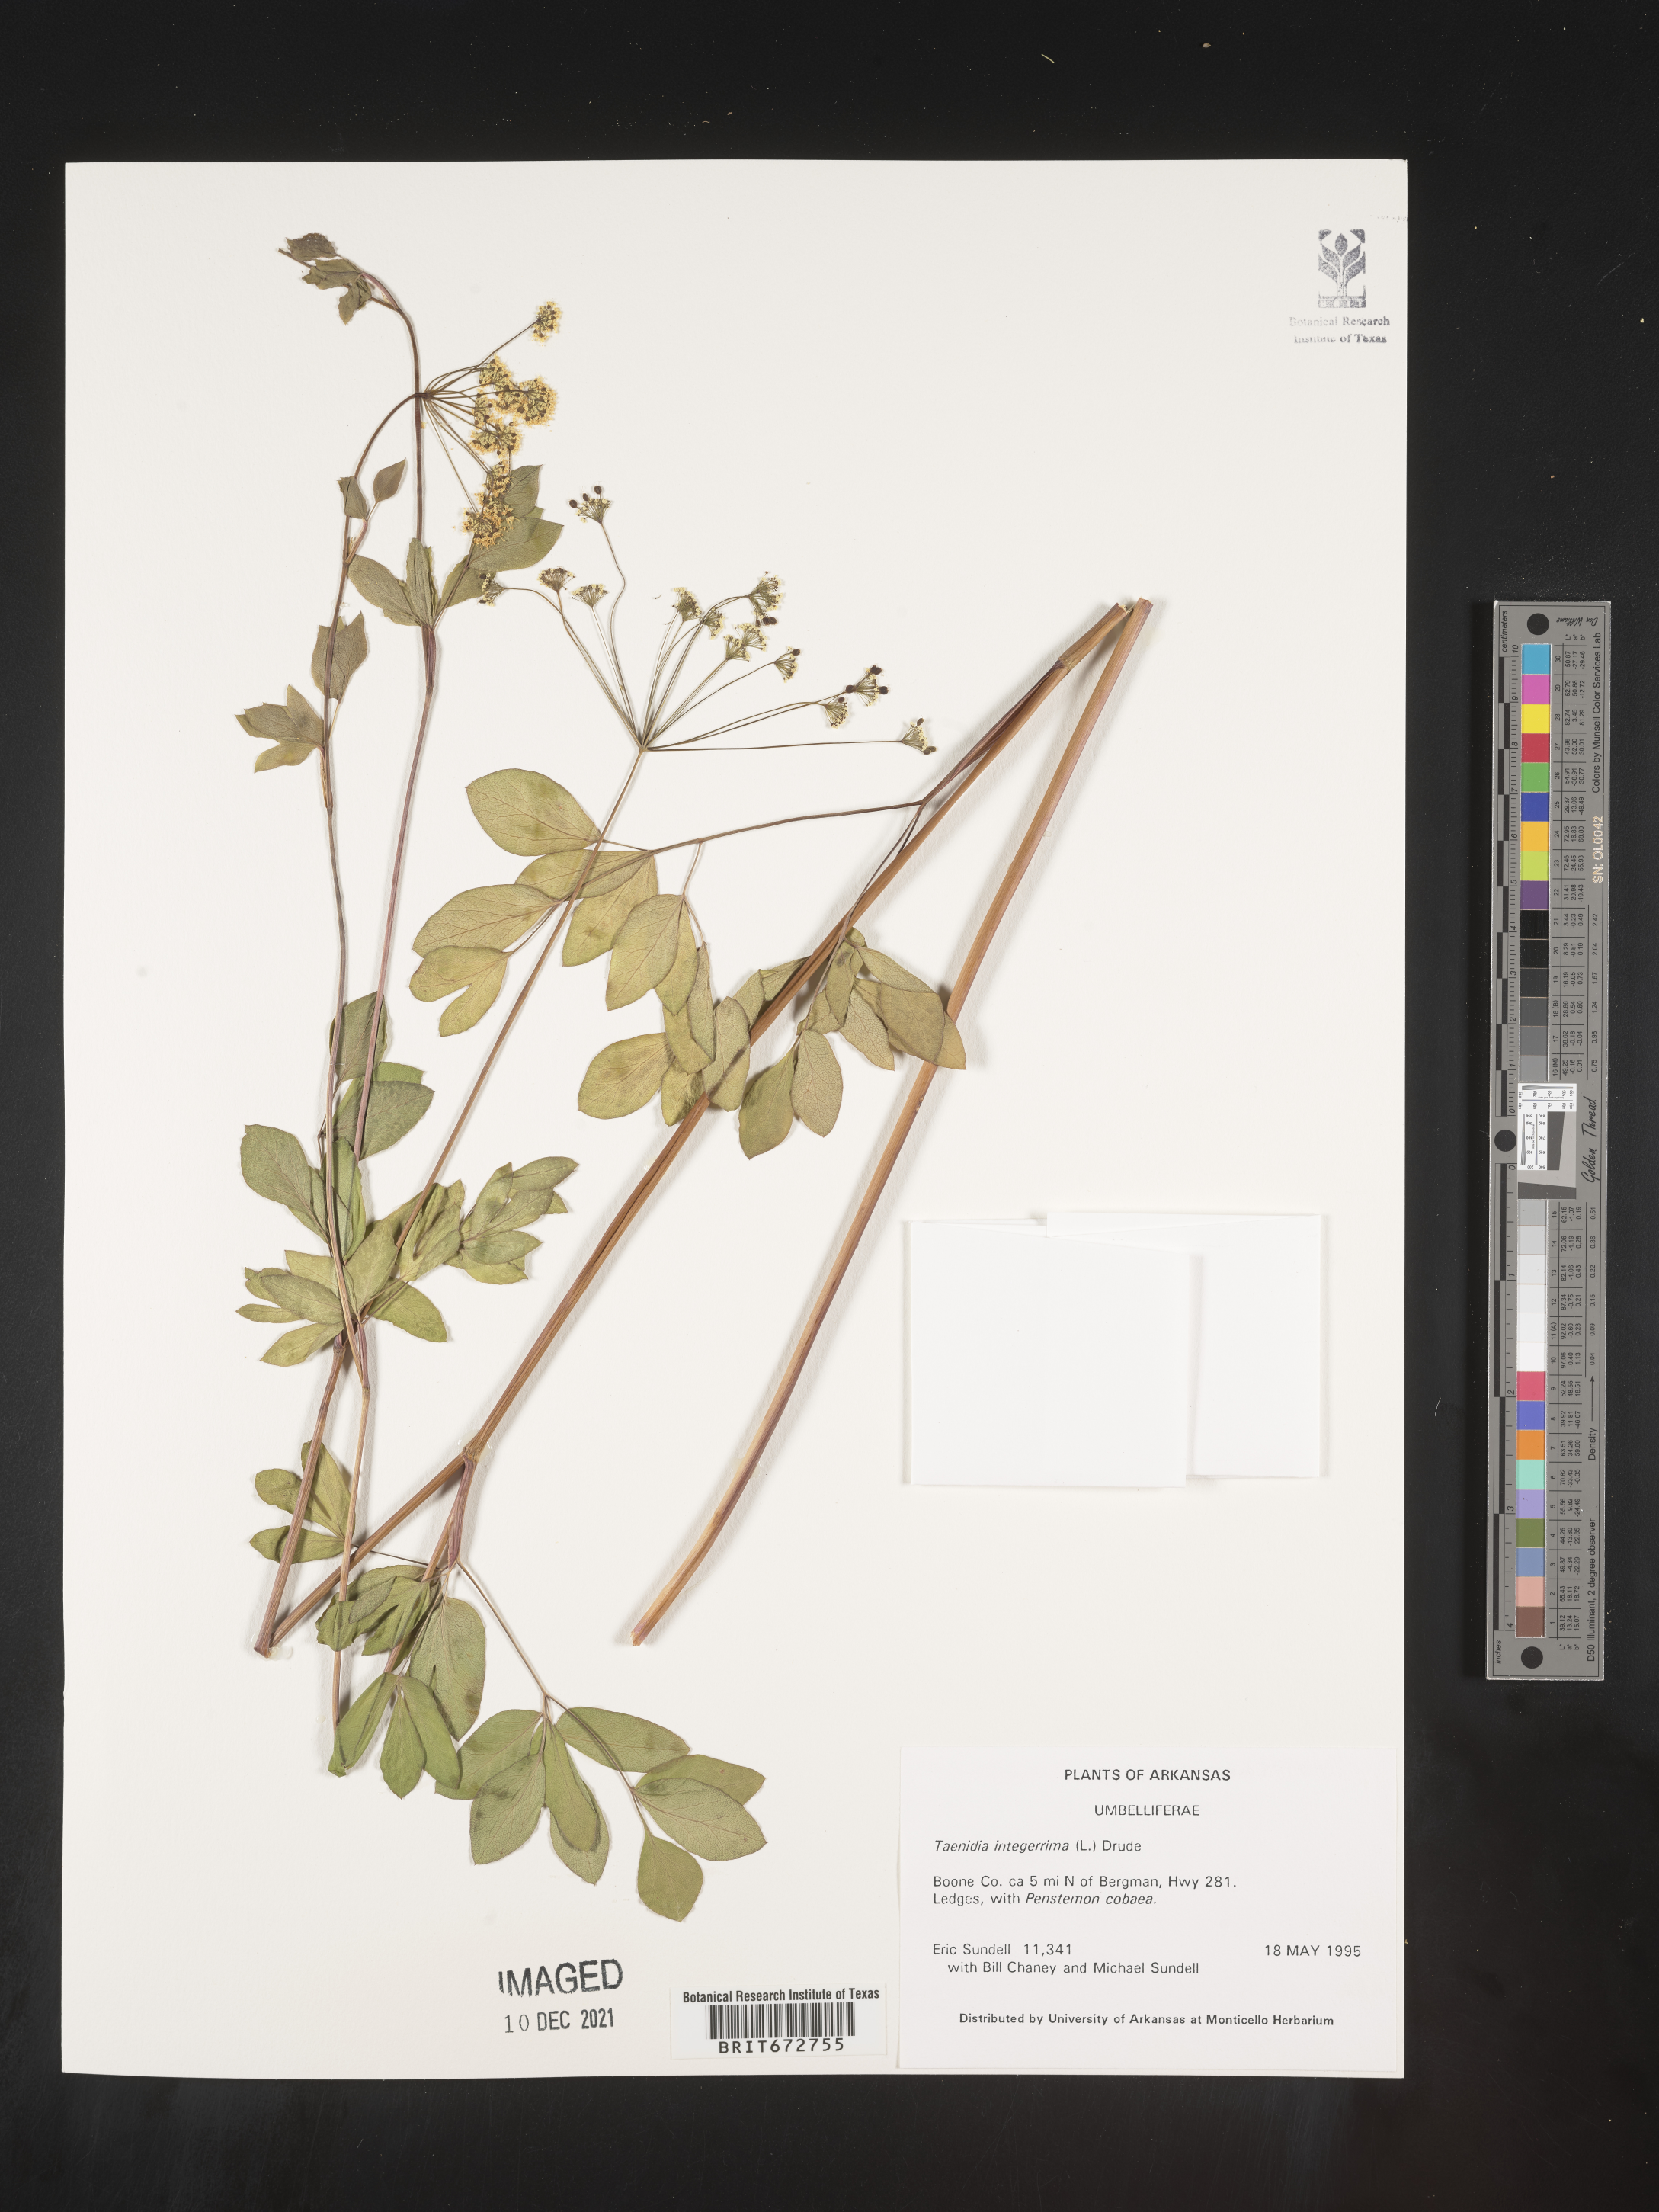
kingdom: Plantae
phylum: Tracheophyta
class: Magnoliopsida
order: Apiales
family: Apiaceae
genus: Taenidia
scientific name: Taenidia integerrima
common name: Golden alexander
